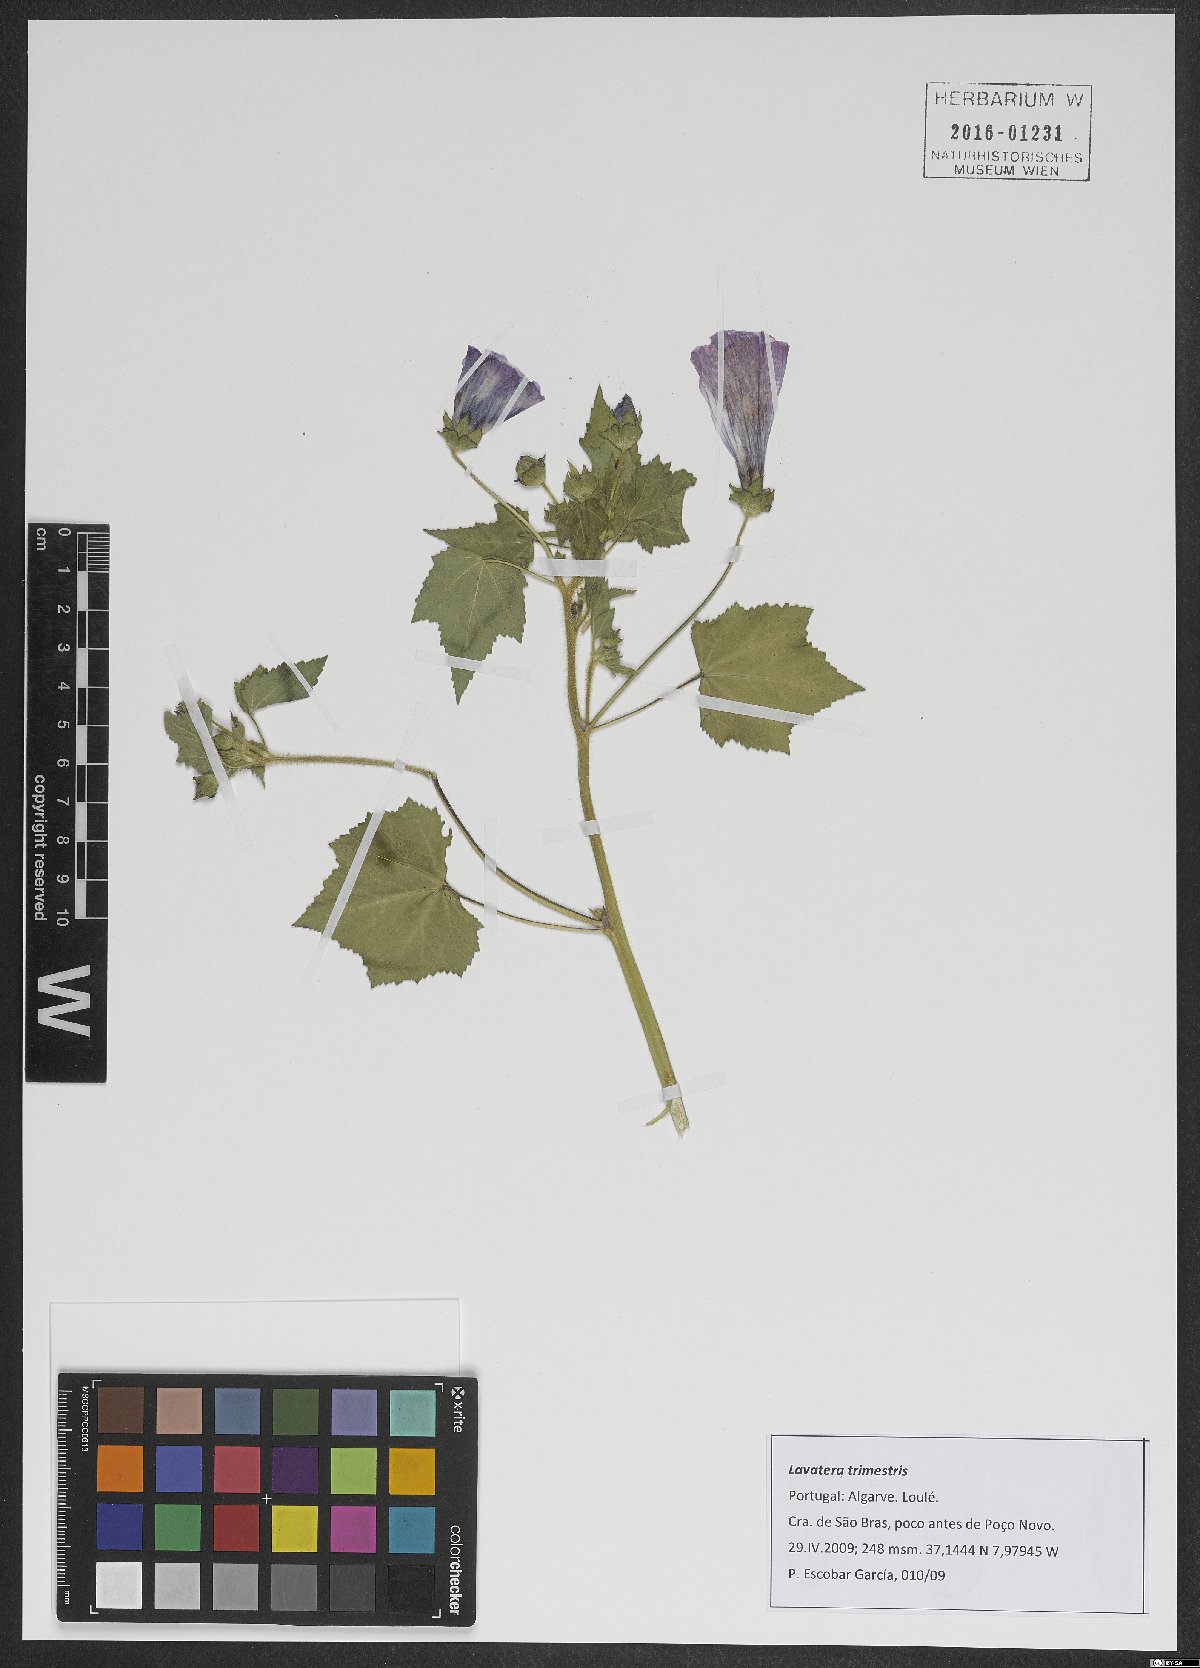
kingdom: Plantae
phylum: Tracheophyta
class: Magnoliopsida
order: Malvales
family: Malvaceae
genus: Malva
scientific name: Malva trimestris
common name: Royal mallow
